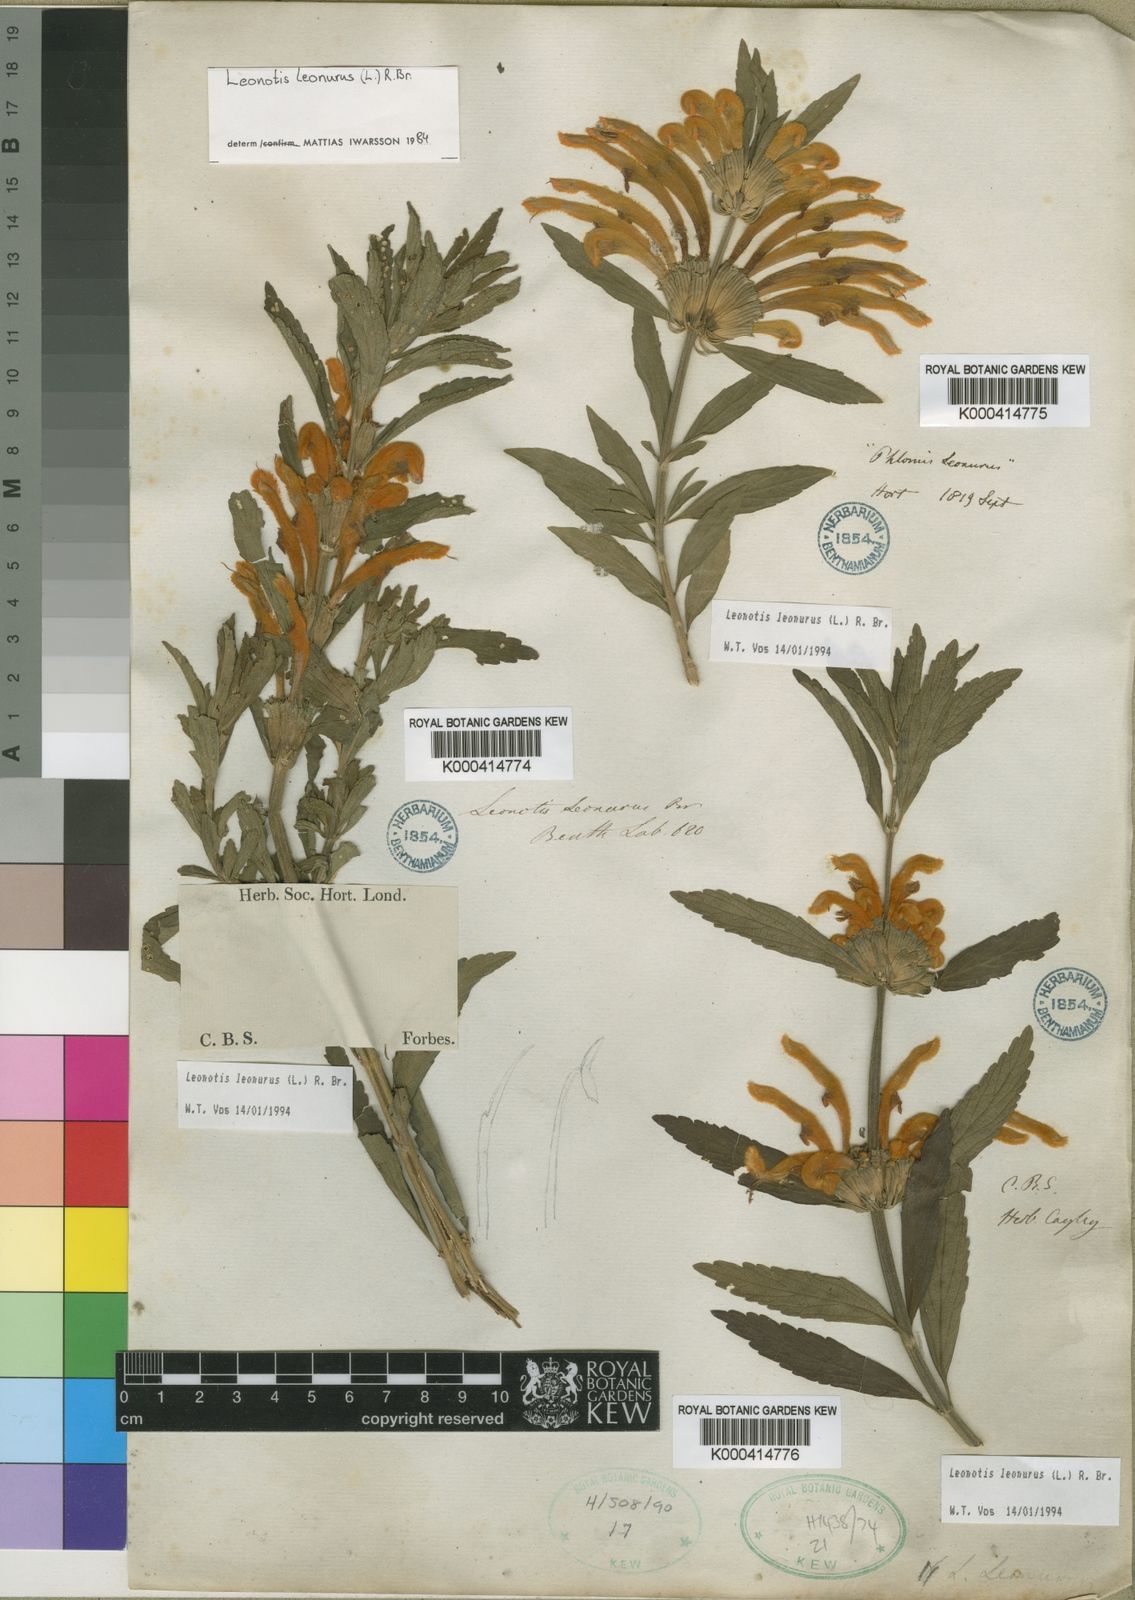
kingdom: Plantae
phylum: Tracheophyta
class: Magnoliopsida
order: Lamiales
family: Lamiaceae
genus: Leonotis
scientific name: Leonotis leonurus
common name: Lion's ear
